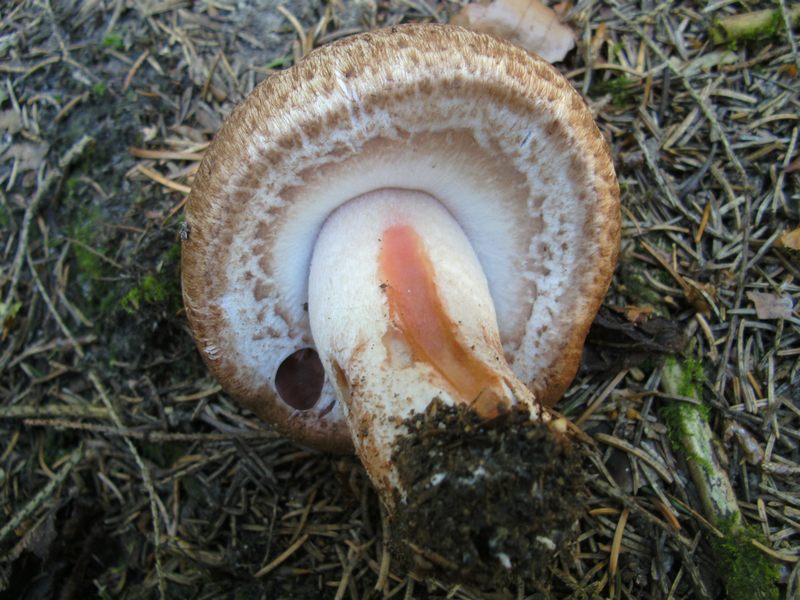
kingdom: Fungi
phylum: Basidiomycota
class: Agaricomycetes
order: Agaricales
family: Agaricaceae
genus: Agaricus
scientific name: Agaricus langei
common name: stor blod-champignon
